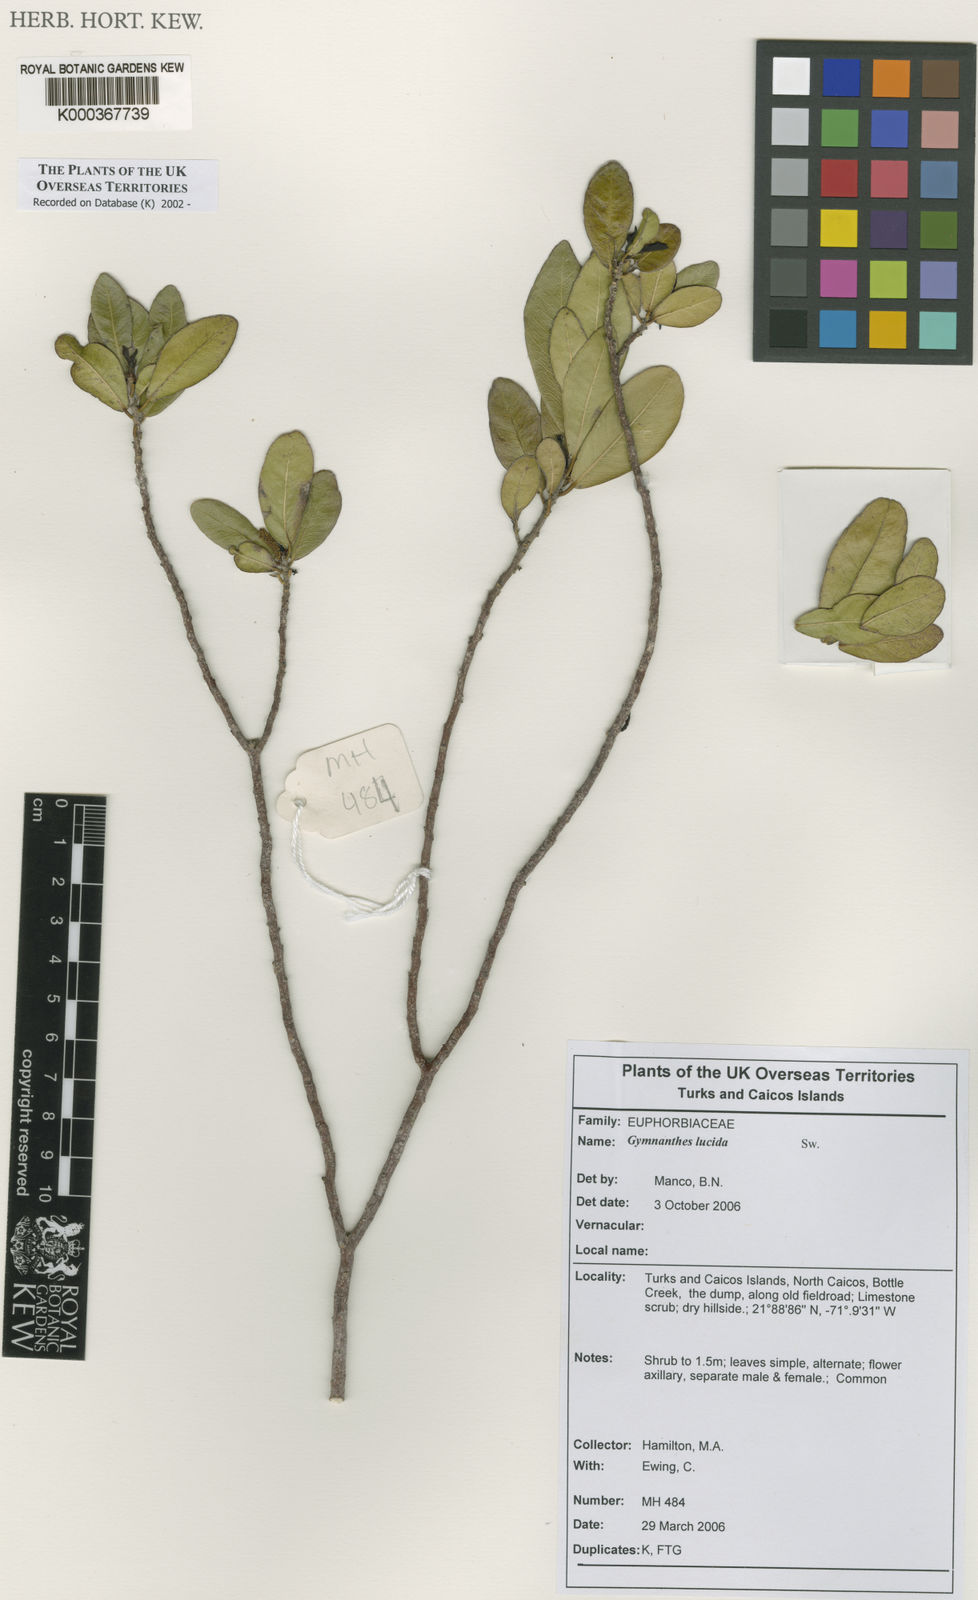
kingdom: Plantae
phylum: Tracheophyta
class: Magnoliopsida
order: Malpighiales
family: Euphorbiaceae
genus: Gymnanthes
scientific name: Gymnanthes lucida
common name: Oysterwood
